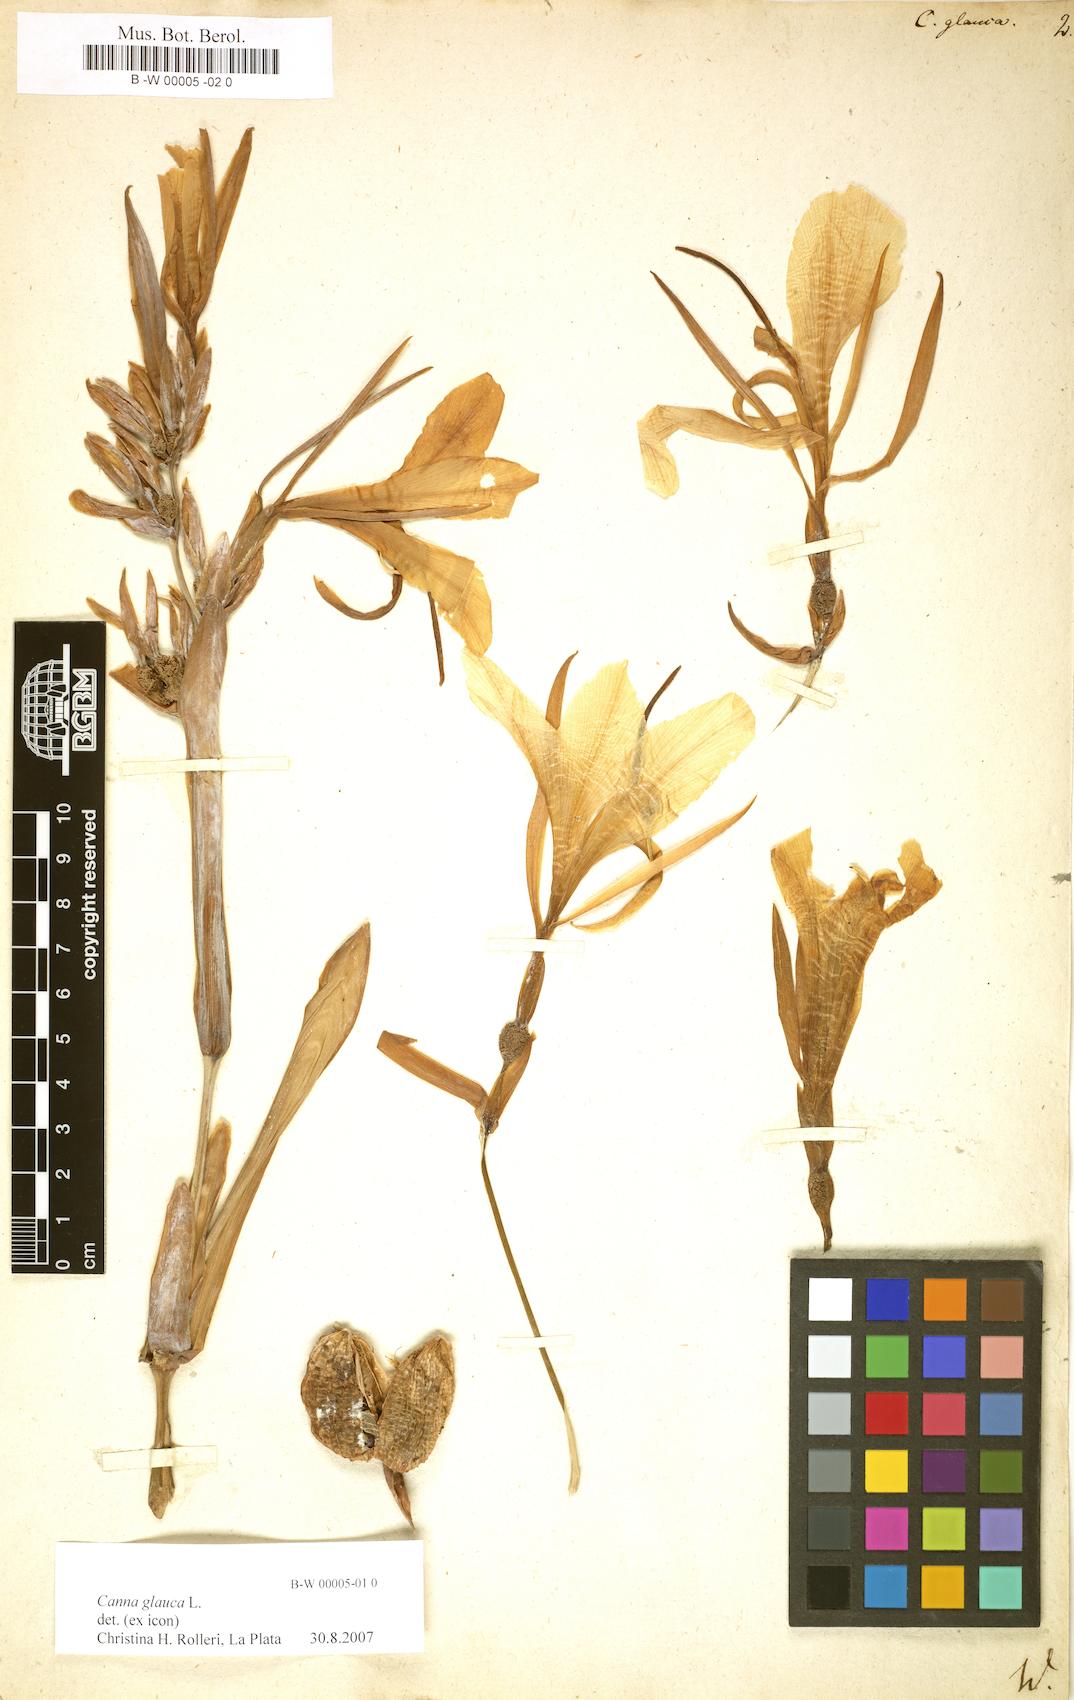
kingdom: Plantae
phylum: Tracheophyta
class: Liliopsida
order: Zingiberales
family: Cannaceae
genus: Canna
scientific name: Canna glauca
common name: Louisiana canna
